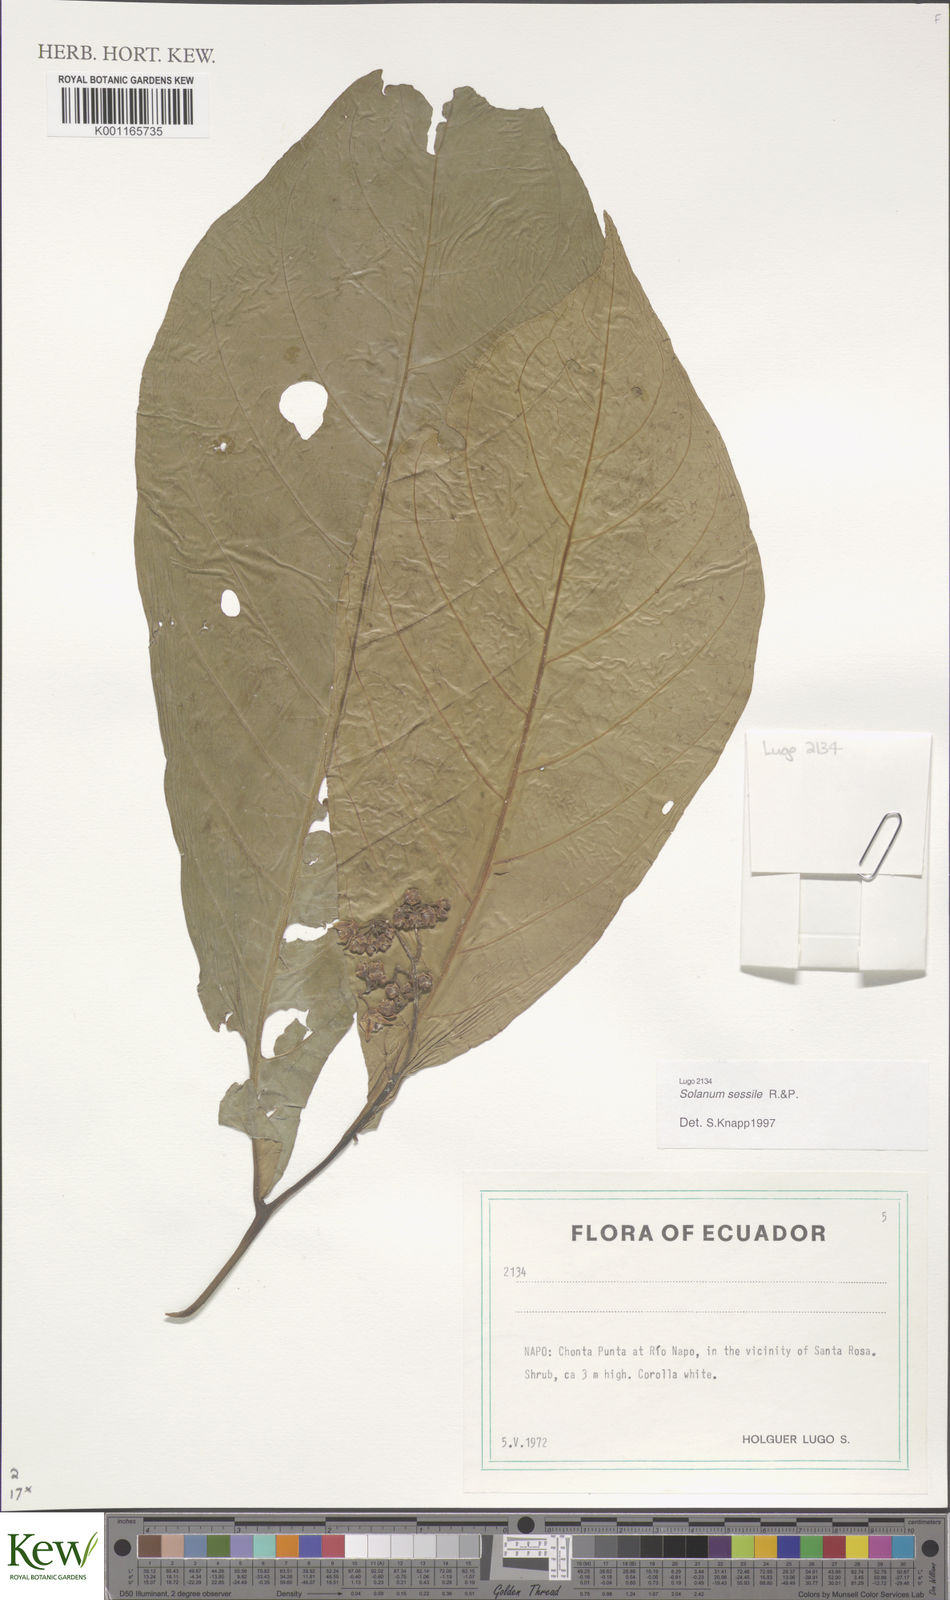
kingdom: Plantae
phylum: Tracheophyta
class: Magnoliopsida
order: Solanales
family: Solanaceae
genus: Solanum
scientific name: Solanum sessile
